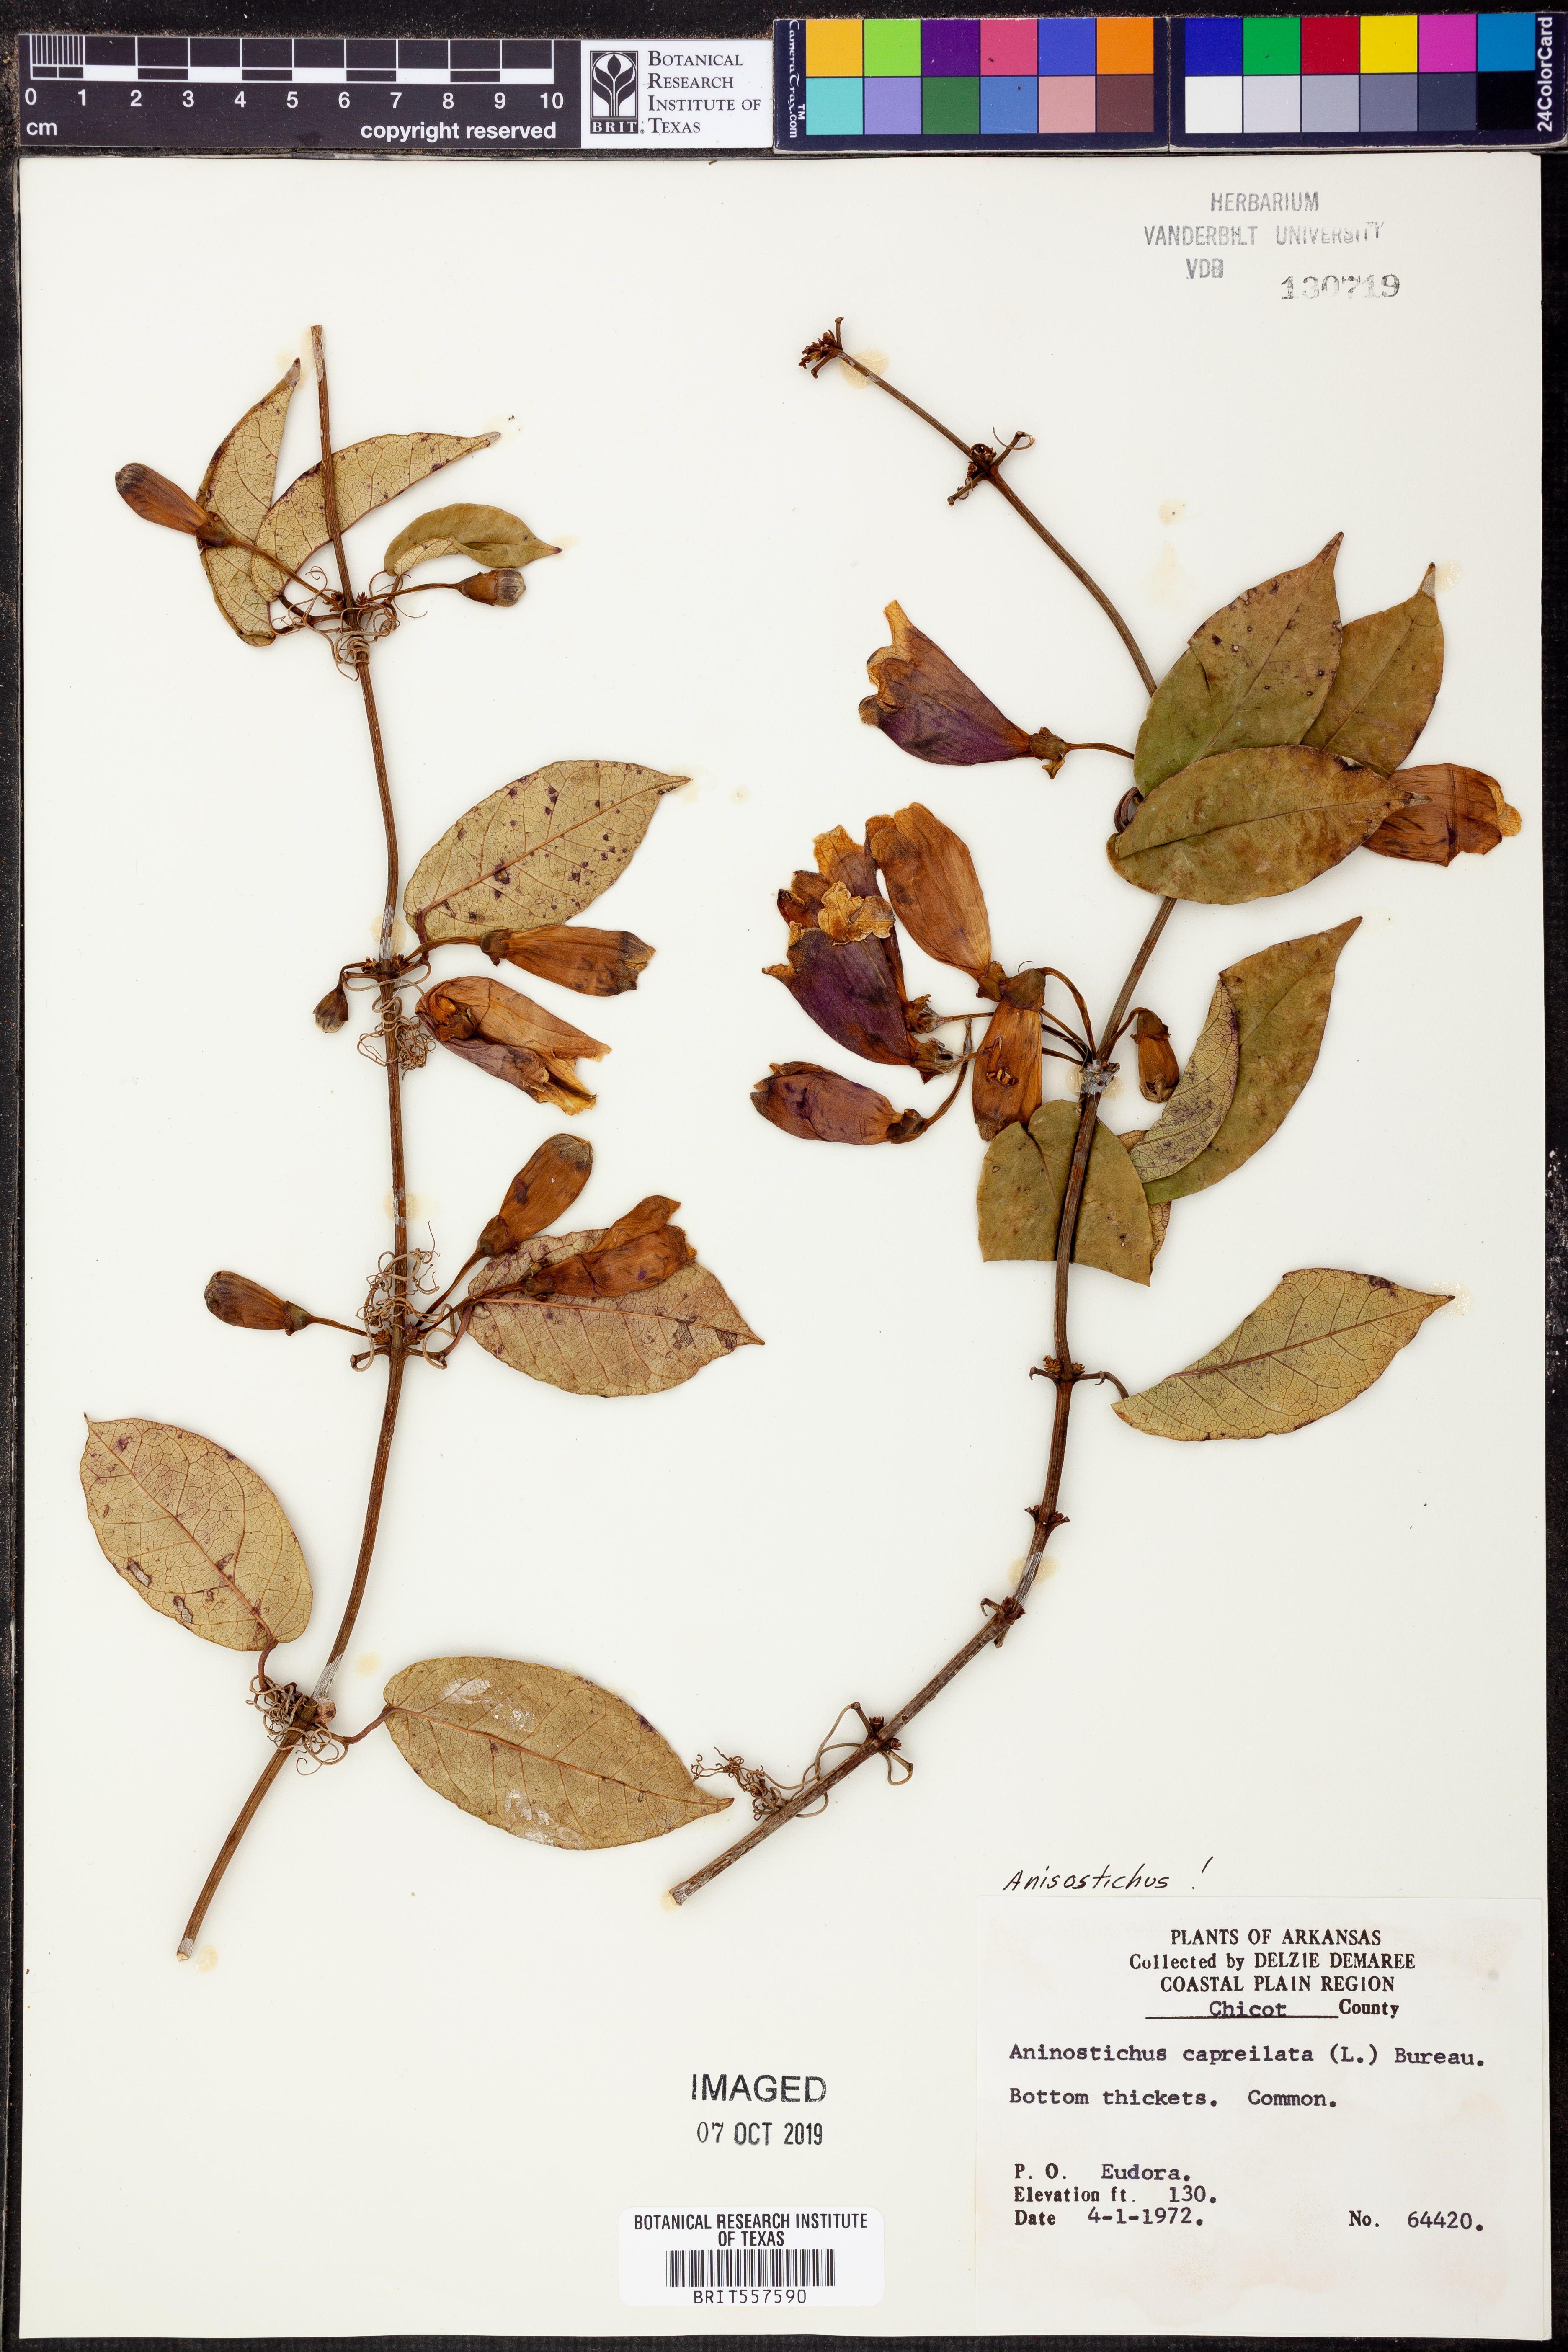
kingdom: Plantae
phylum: Tracheophyta
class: Magnoliopsida
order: Lamiales
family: Bignoniaceae
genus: Bignonia
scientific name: Bignonia capreolata
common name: Crossvine
